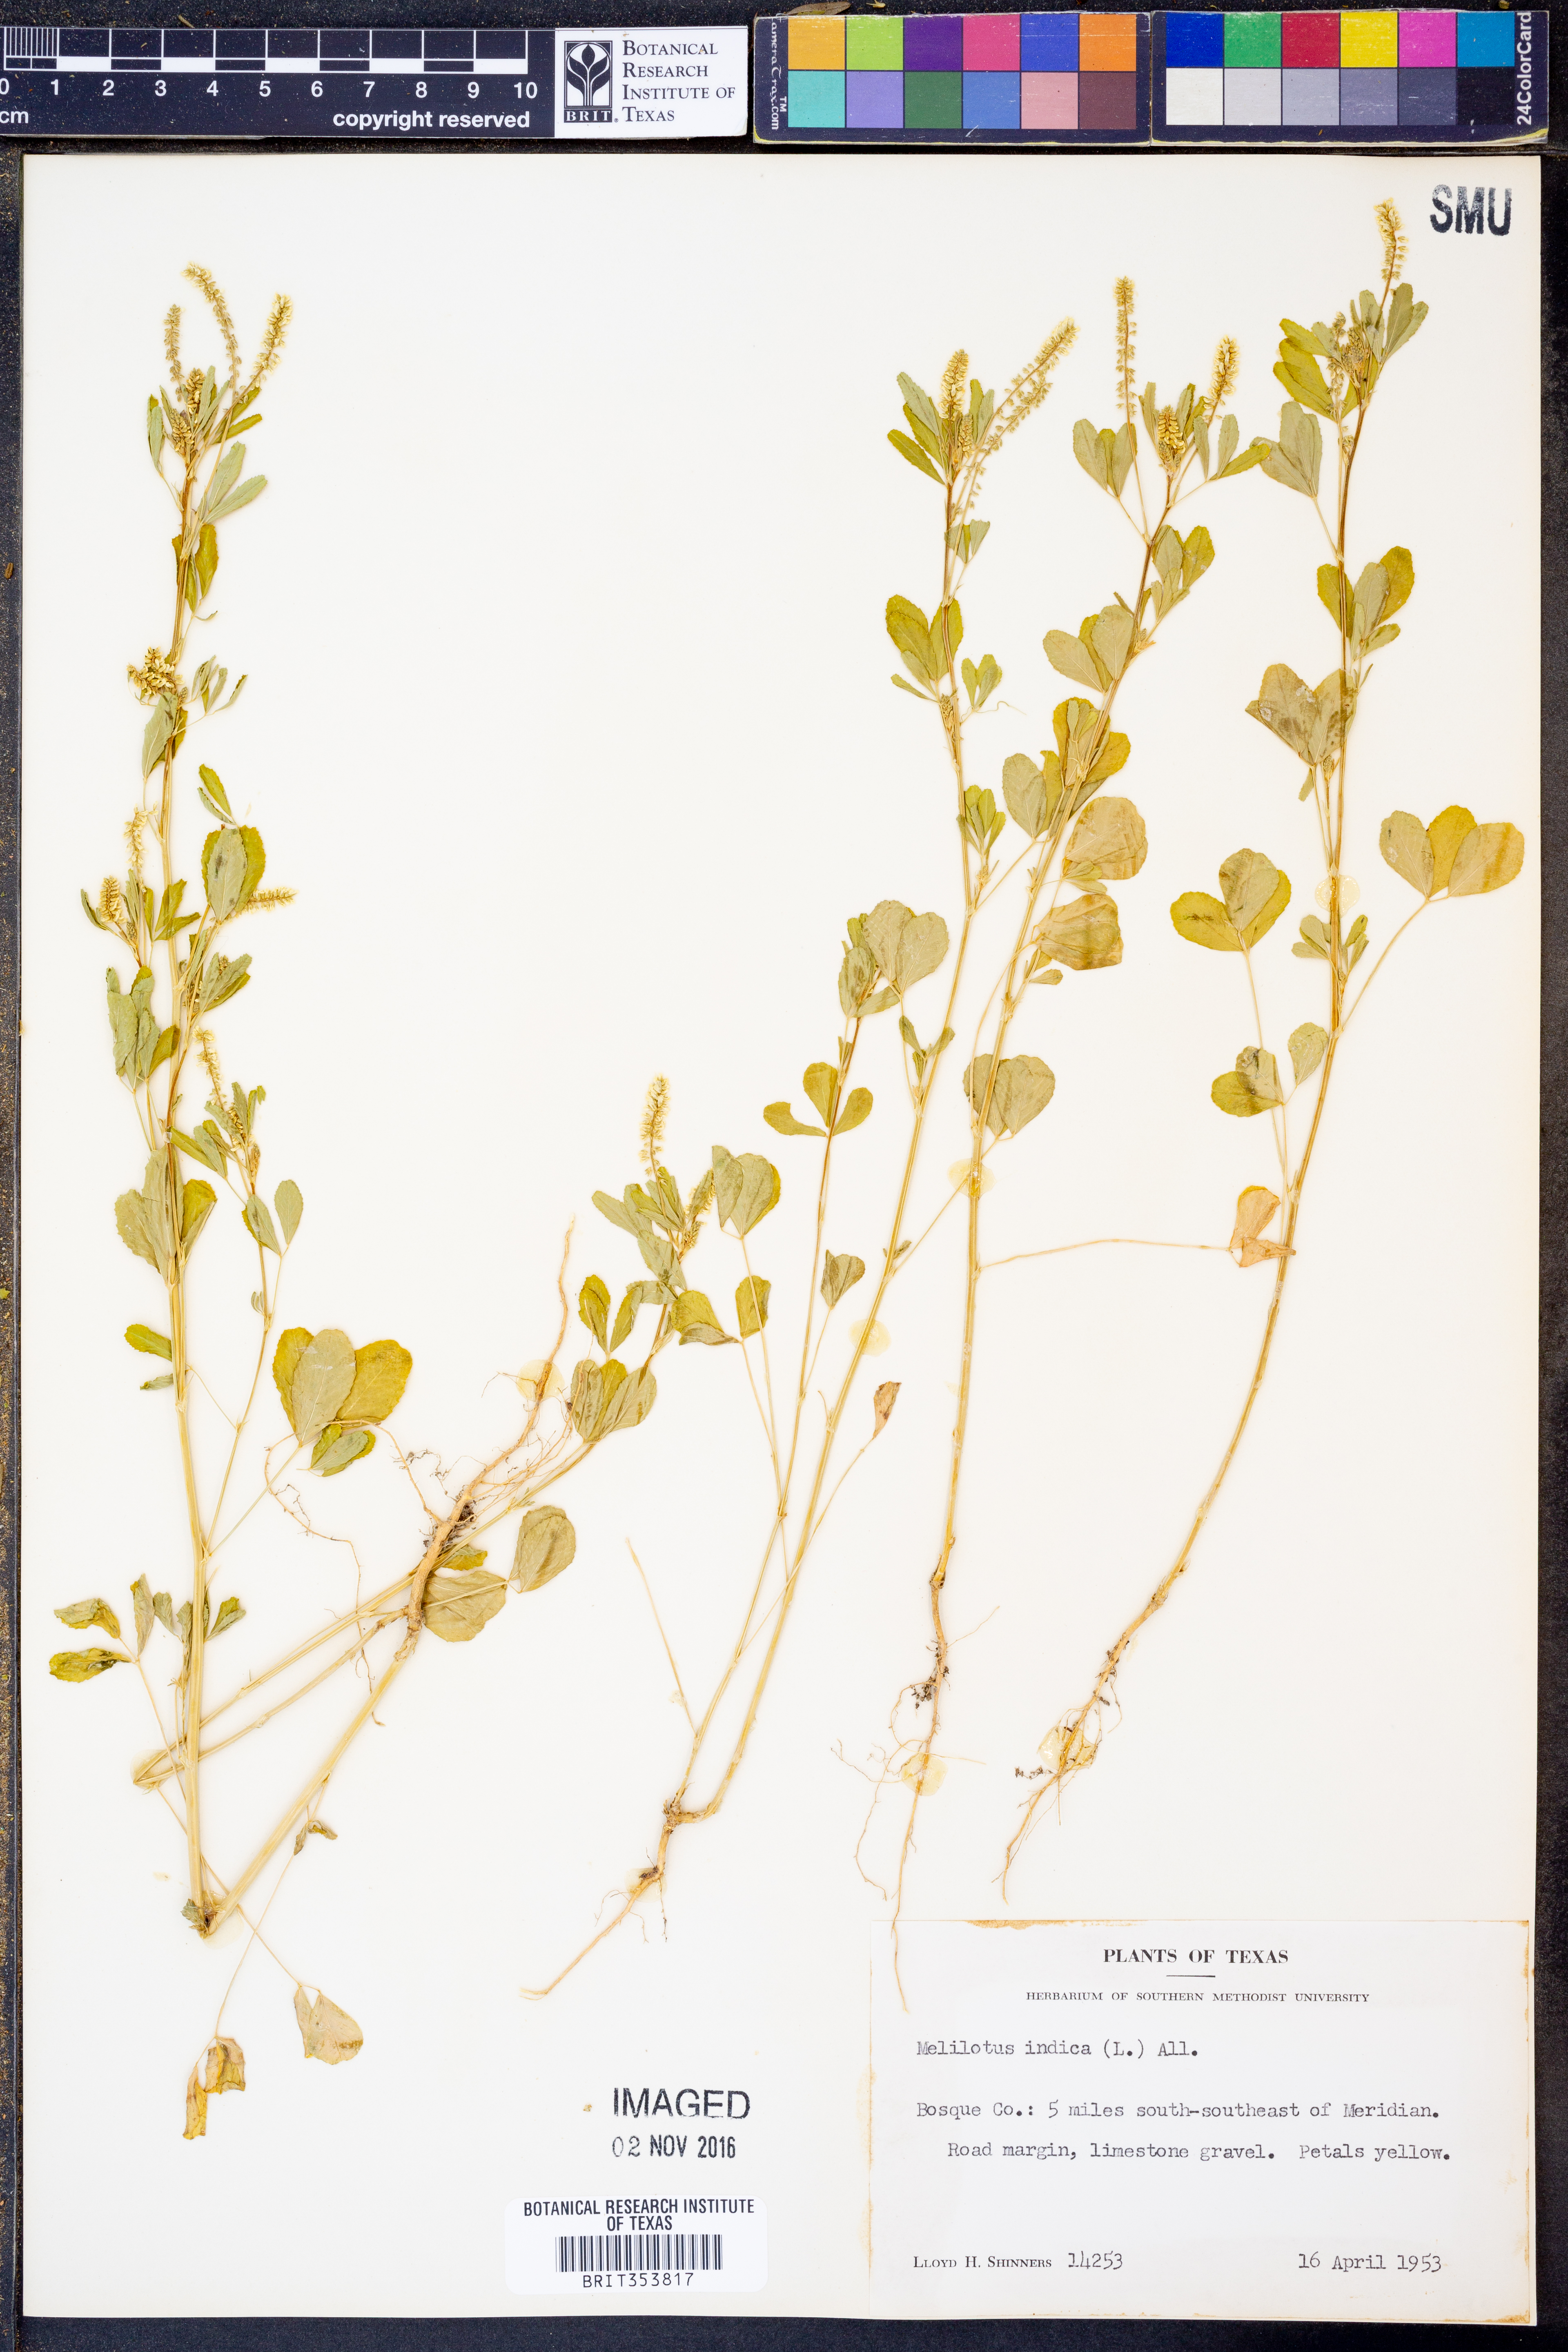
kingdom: Plantae
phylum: Tracheophyta
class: Magnoliopsida
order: Fabales
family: Fabaceae
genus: Melilotus
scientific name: Melilotus indicus
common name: Small melilot
